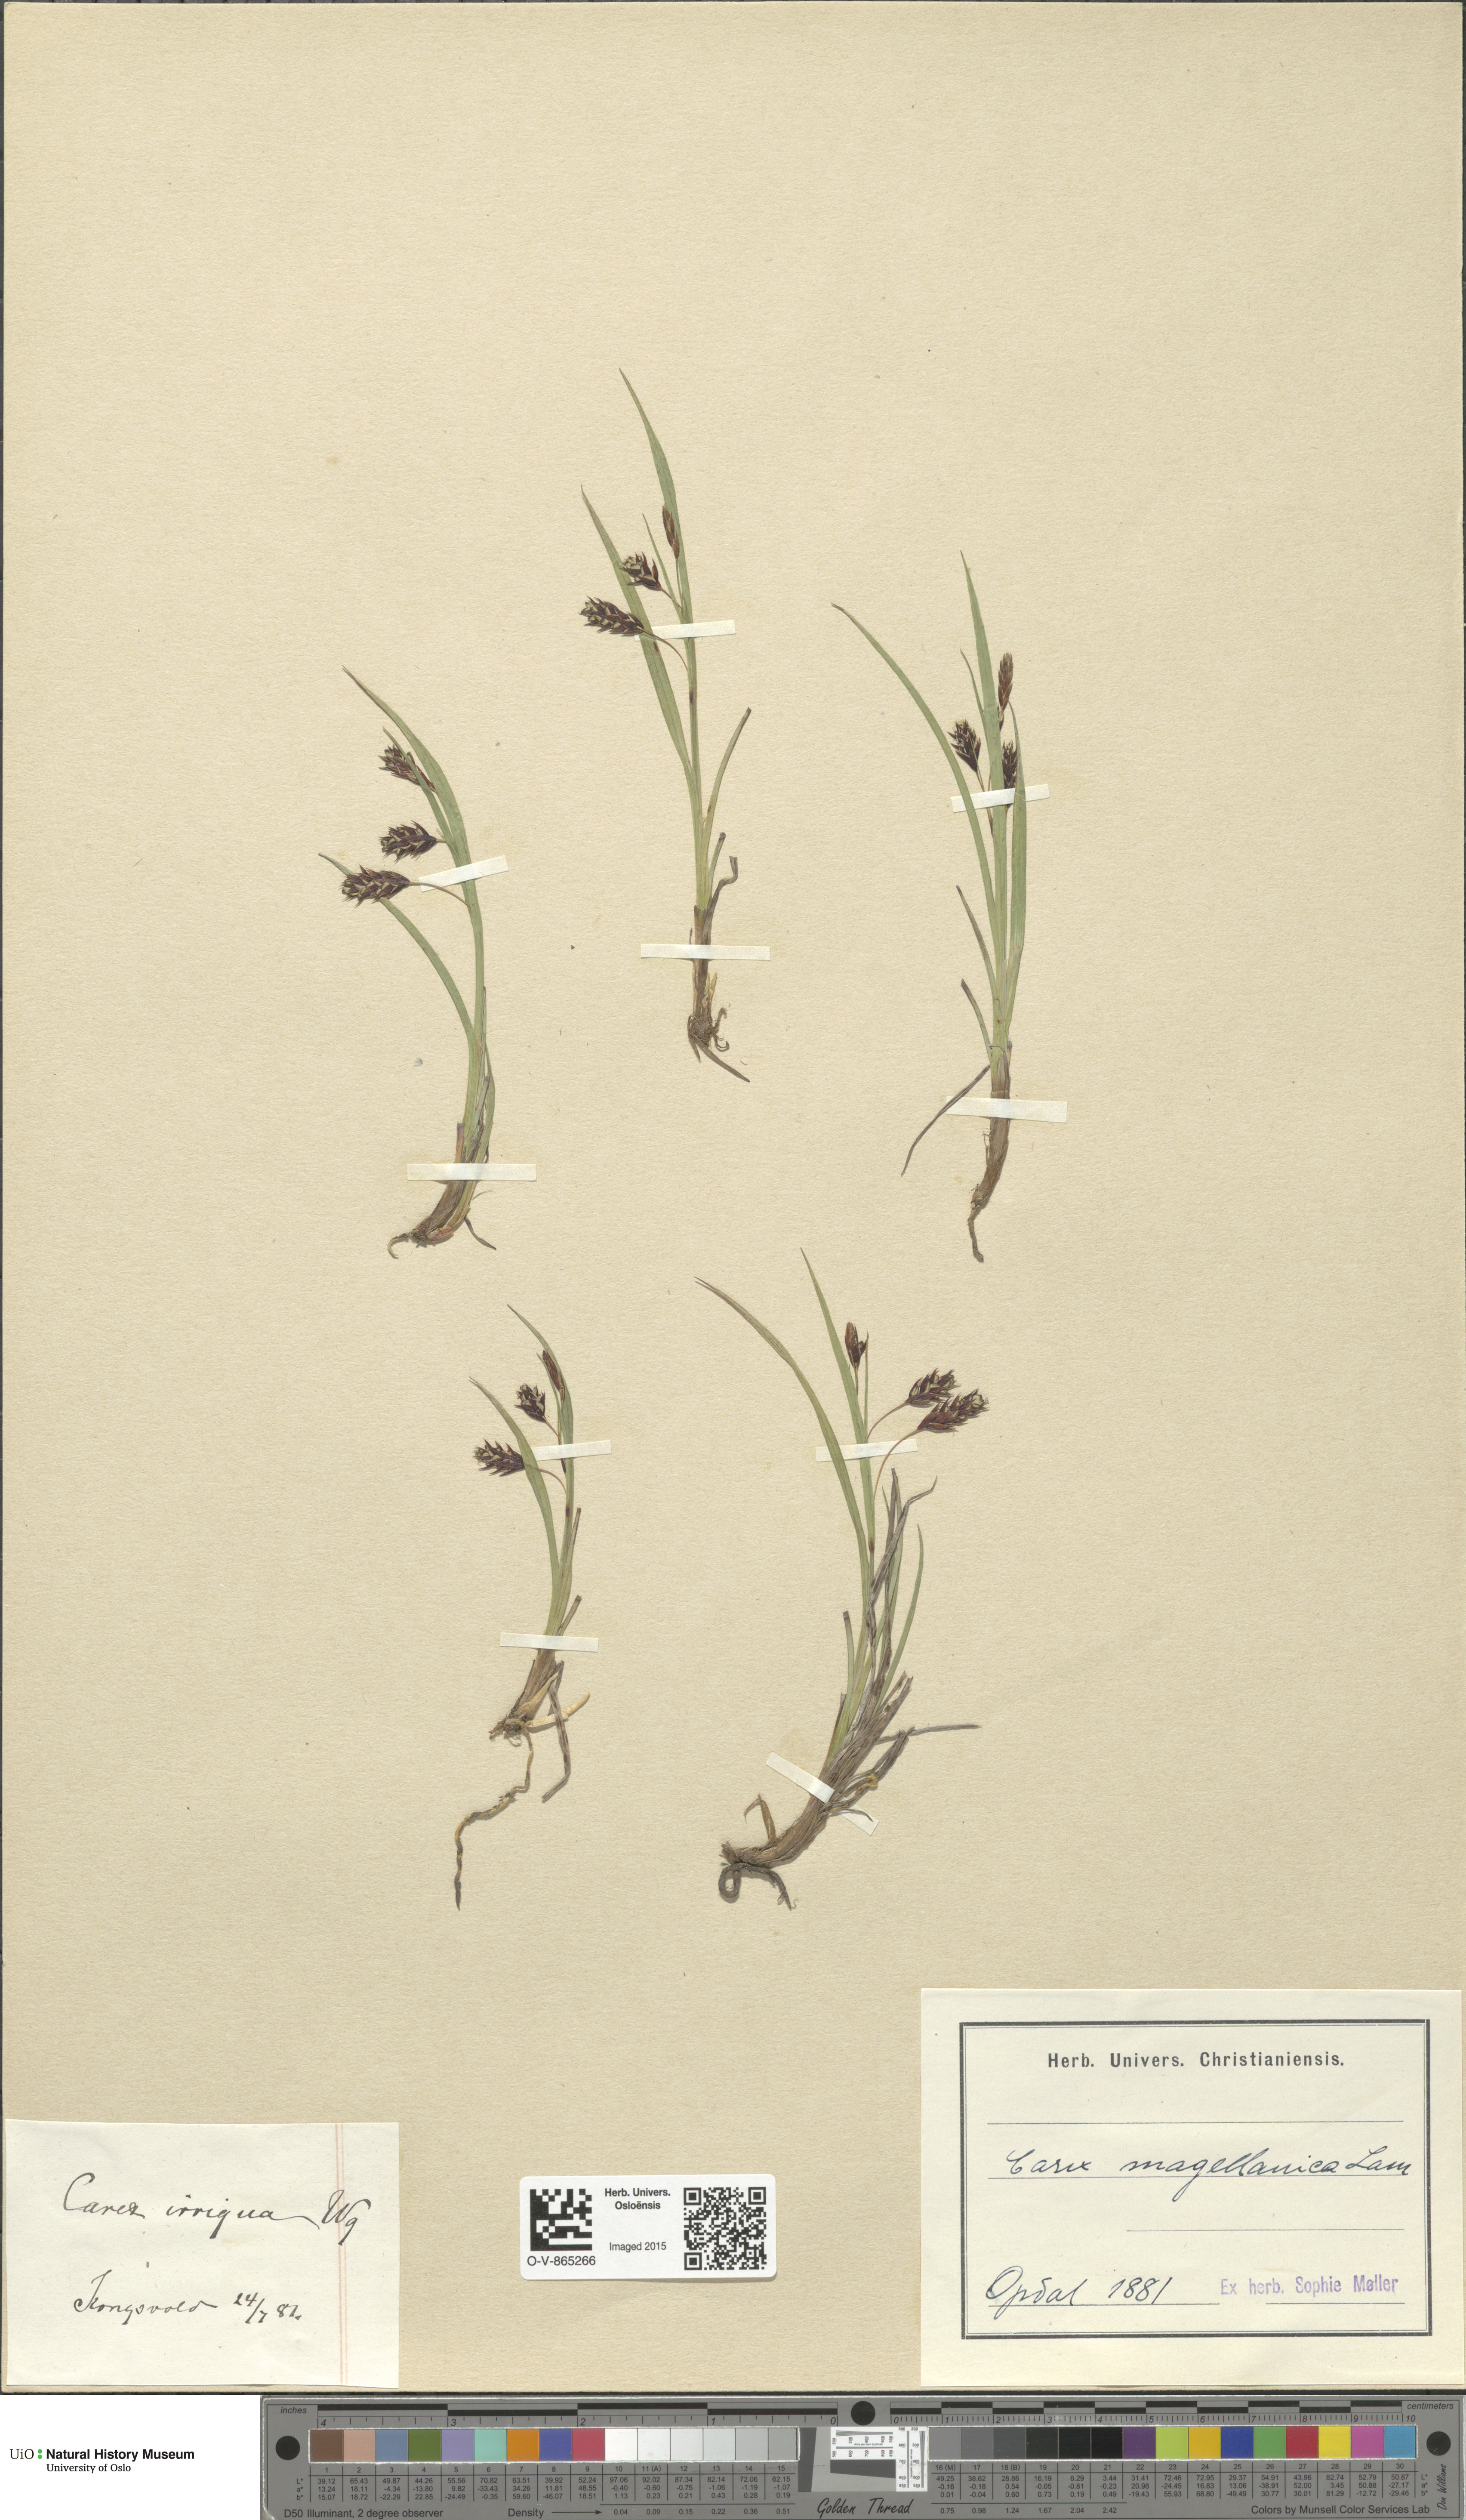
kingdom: Plantae
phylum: Tracheophyta
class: Liliopsida
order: Poales
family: Cyperaceae
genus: Carex
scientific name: Carex magellanica
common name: Bog sedge
